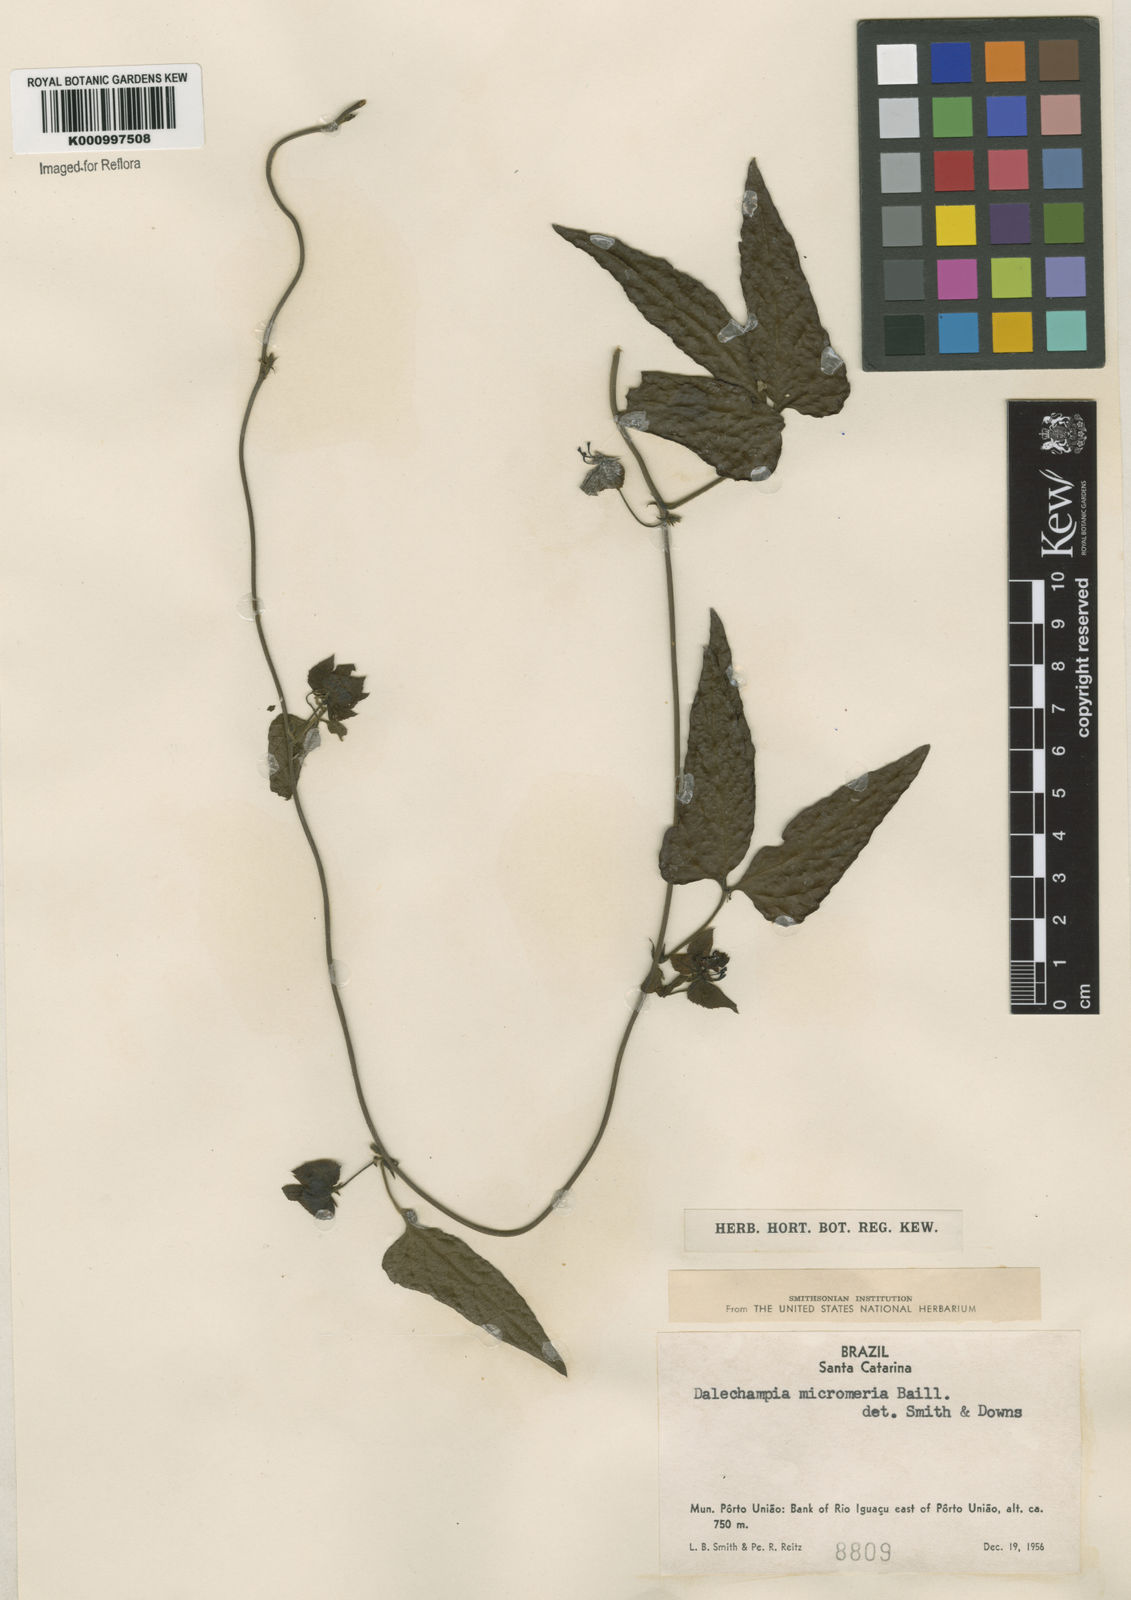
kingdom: Plantae
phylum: Tracheophyta
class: Magnoliopsida
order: Malpighiales
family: Euphorbiaceae
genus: Dalechampia
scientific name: Dalechampia micromeria
